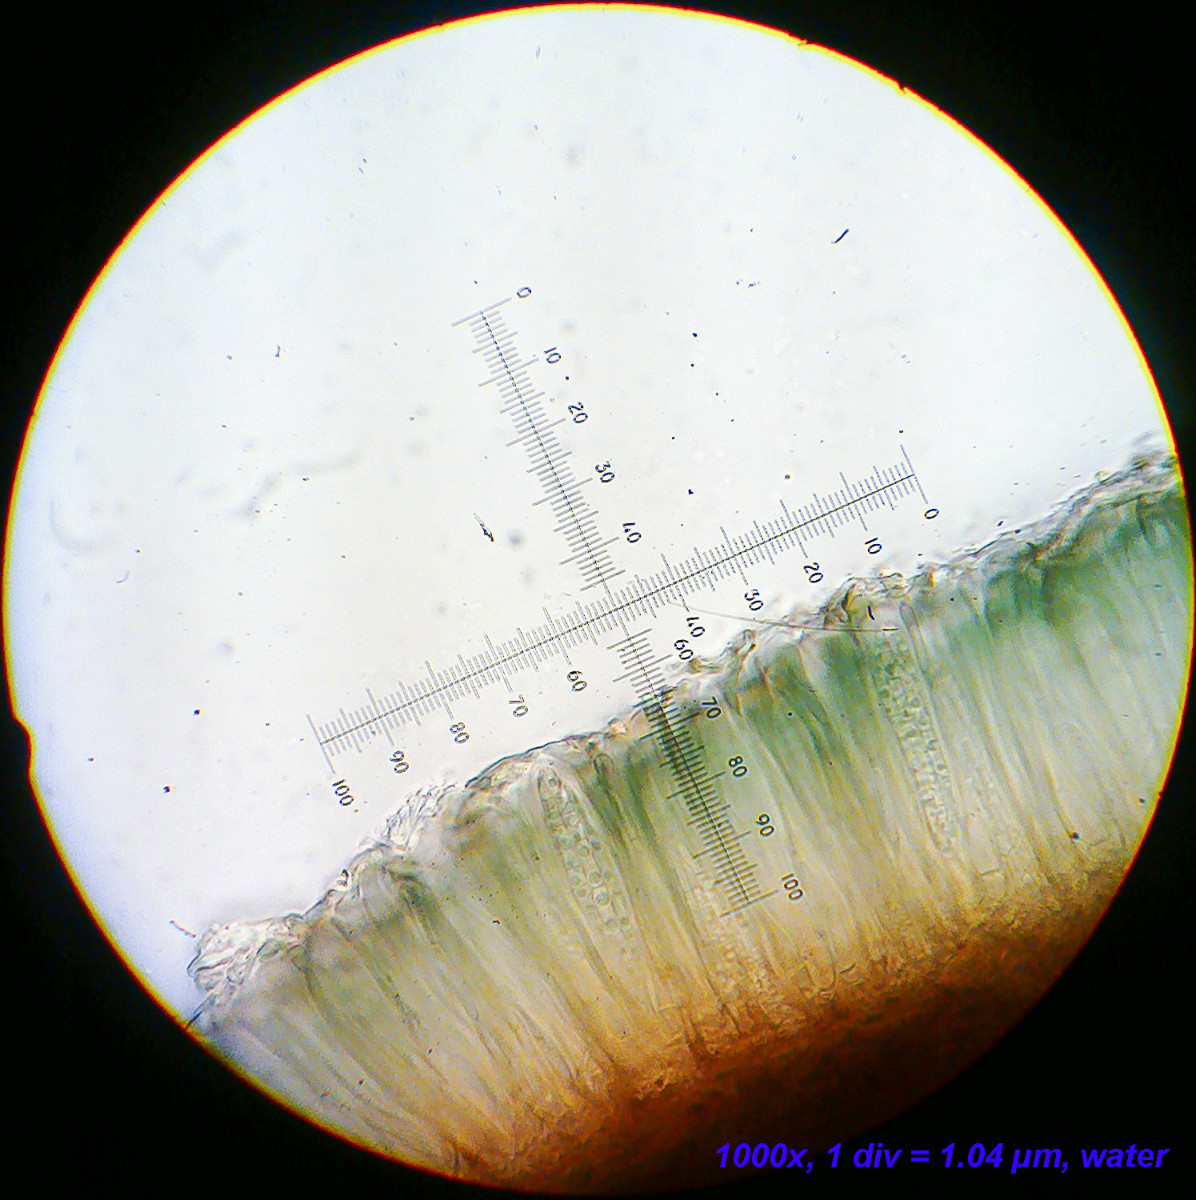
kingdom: Fungi
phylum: Ascomycota
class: Lecanoromycetes
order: Lecanorales
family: Ramalinaceae
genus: Toniniopsis
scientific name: Toniniopsis bagliettoana
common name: mos-tensporelav
